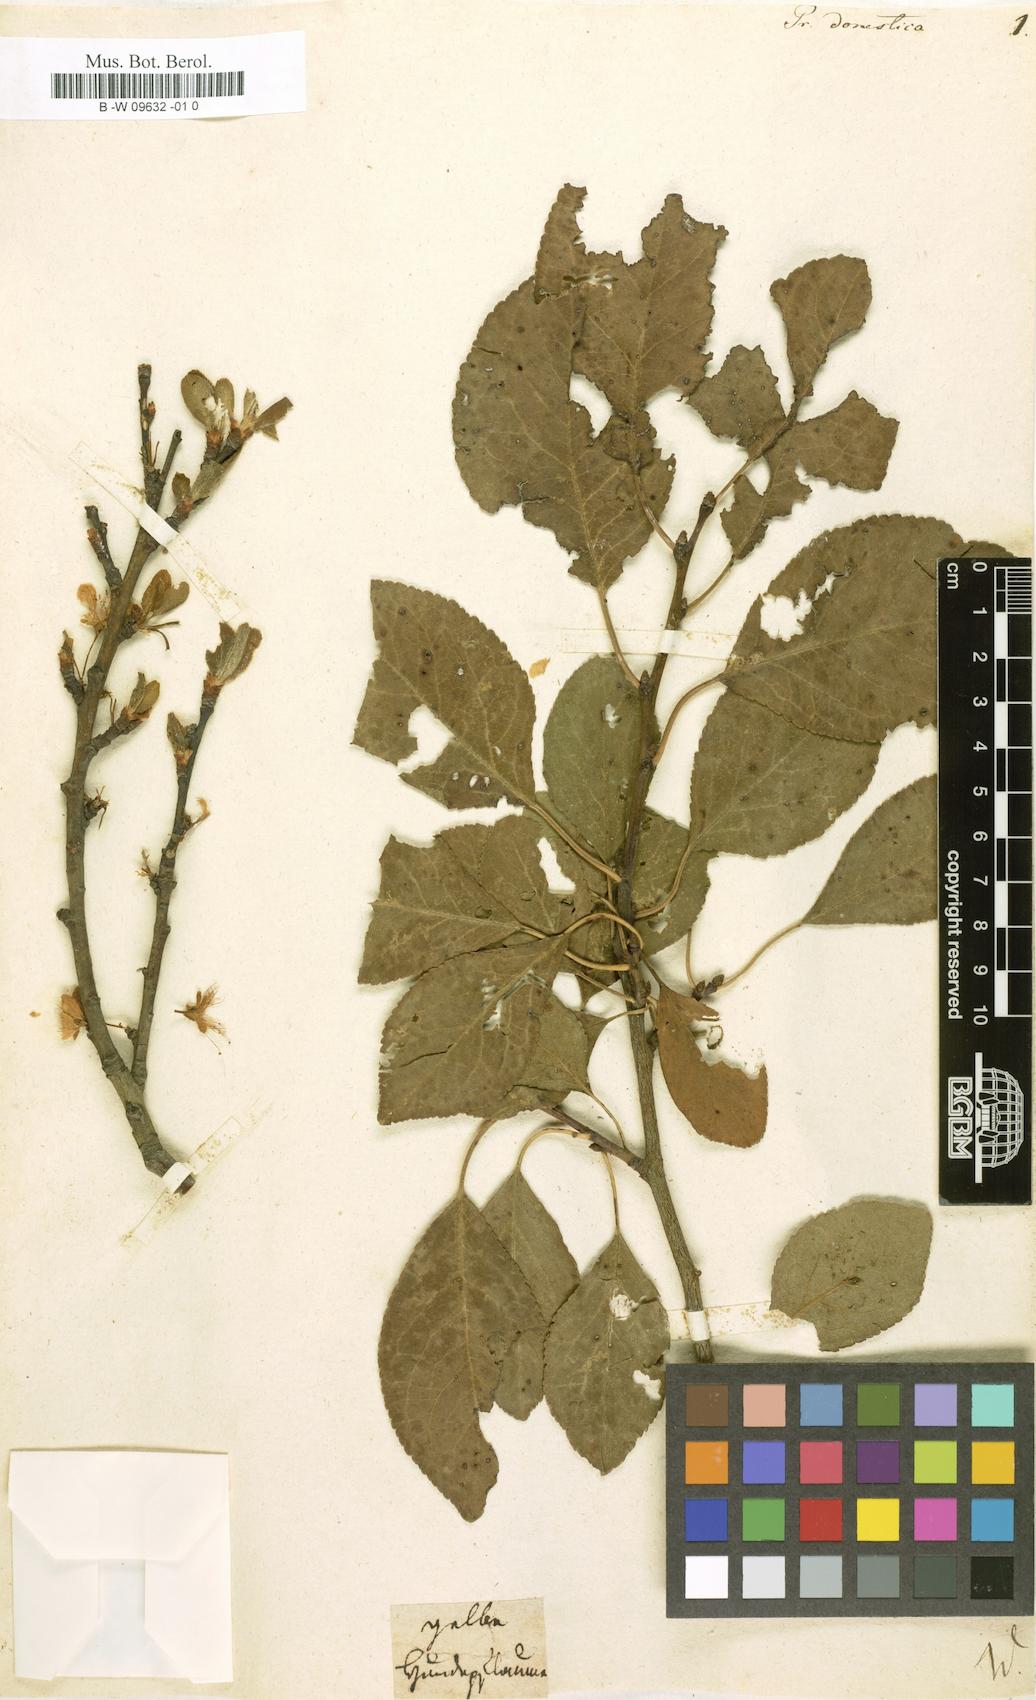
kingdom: Plantae
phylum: Tracheophyta
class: Magnoliopsida
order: Rosales
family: Rosaceae
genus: Prunus
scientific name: Prunus domestica
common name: Wild plum
